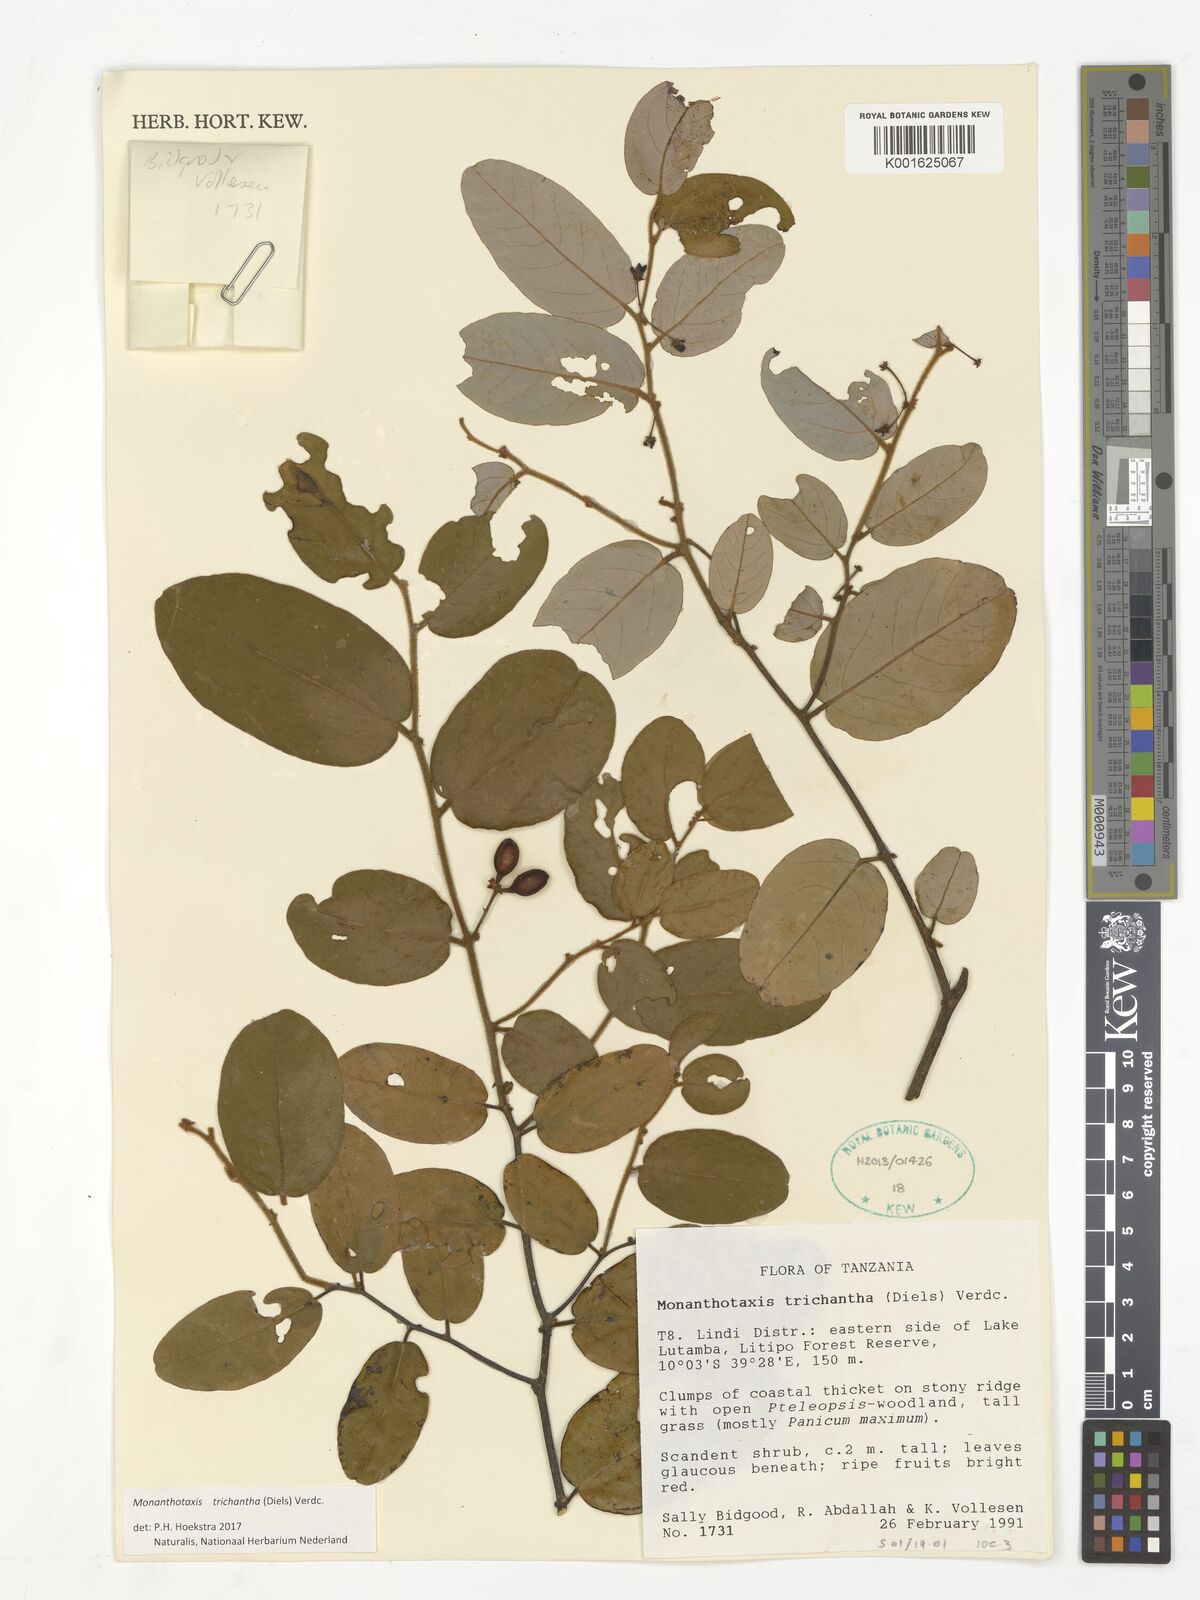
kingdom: Plantae
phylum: Tracheophyta
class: Magnoliopsida
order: Magnoliales
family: Annonaceae
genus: Monanthotaxis
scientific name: Monanthotaxis trichantha
